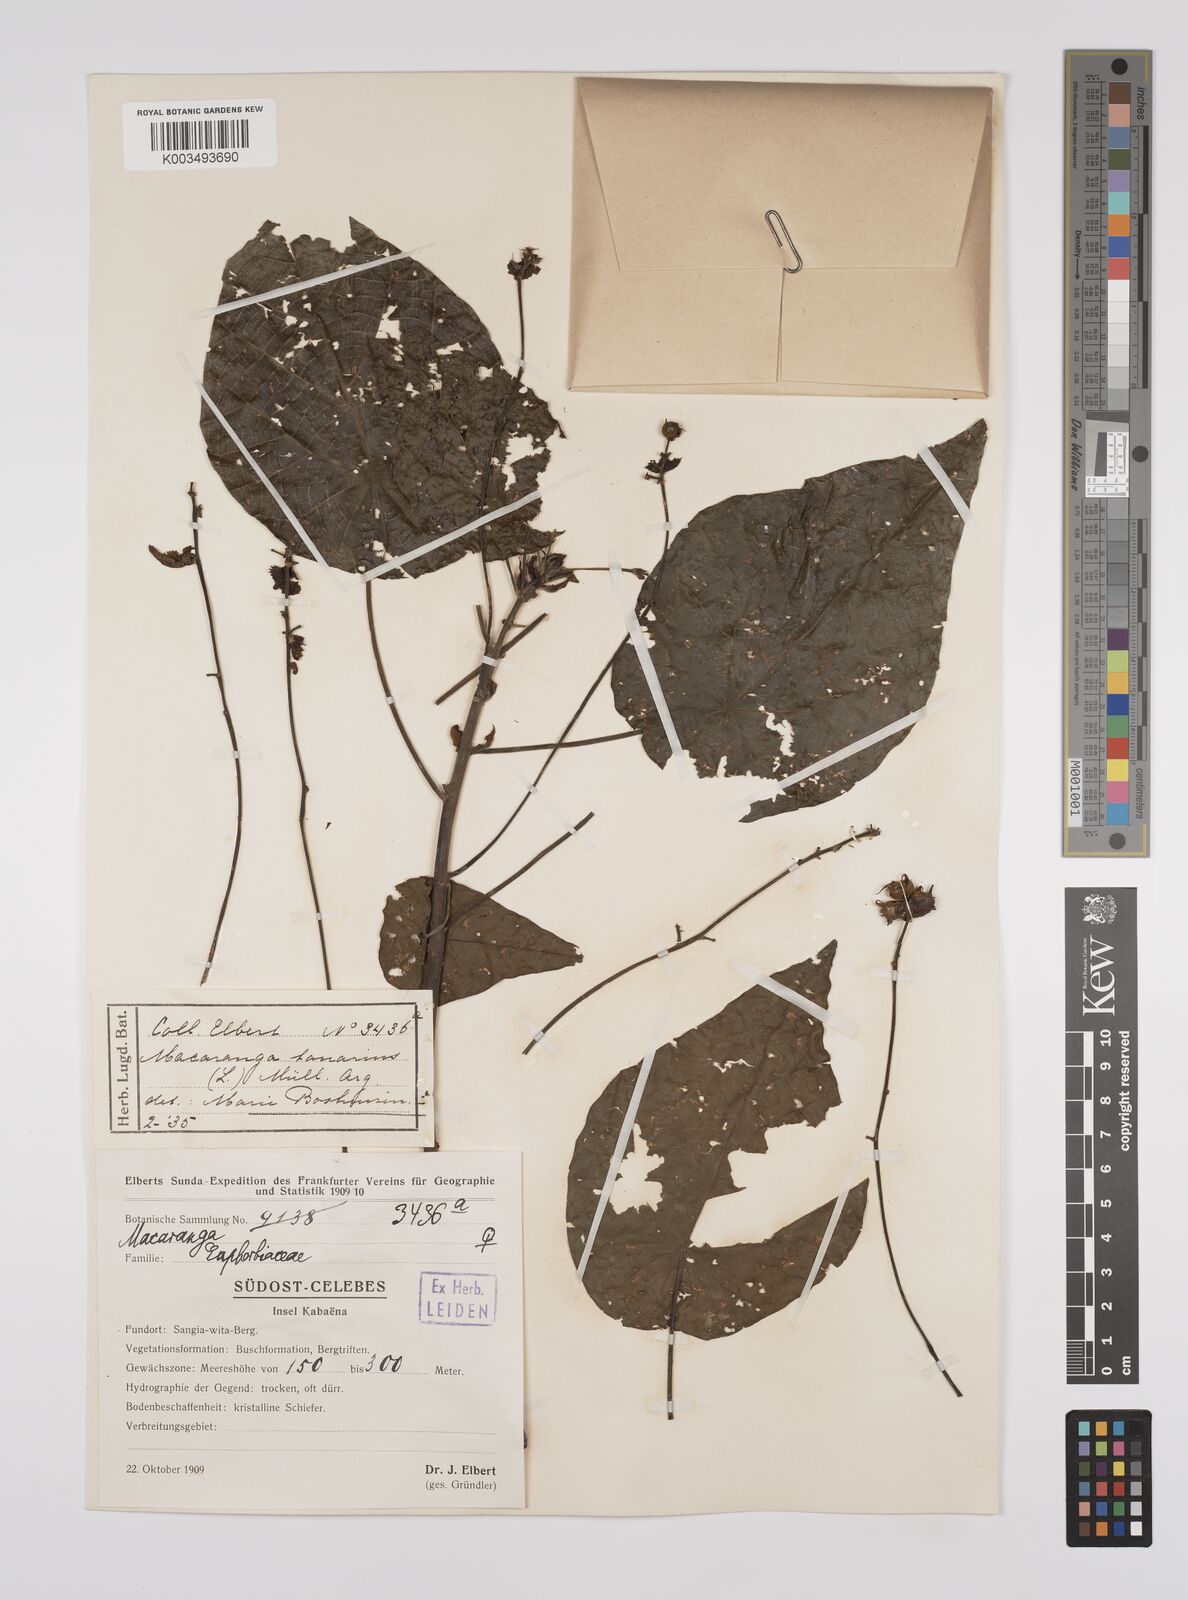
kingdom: Plantae
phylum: Tracheophyta
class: Magnoliopsida
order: Malpighiales
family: Euphorbiaceae
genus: Macaranga
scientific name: Macaranga tanarius
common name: Parasol leaf tree
